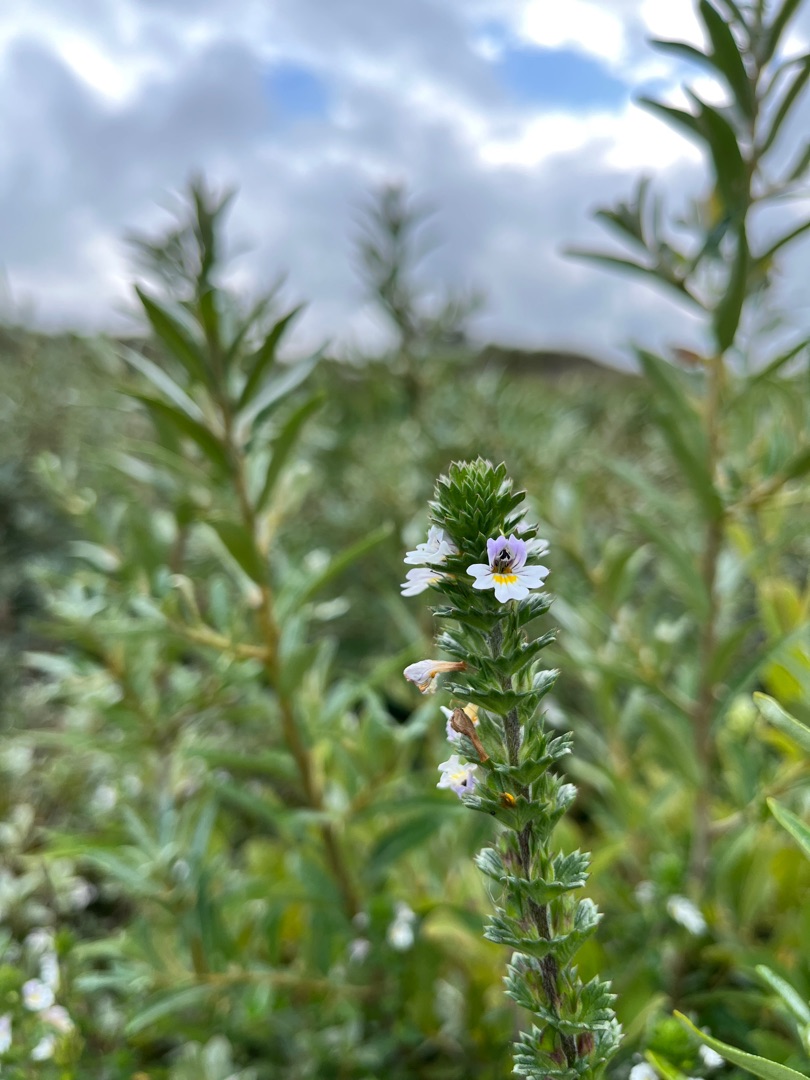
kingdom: Plantae
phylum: Tracheophyta
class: Magnoliopsida
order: Lamiales
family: Orobanchaceae
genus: Euphrasia
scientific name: Euphrasia nemorosa
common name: Kort øjentrøst
